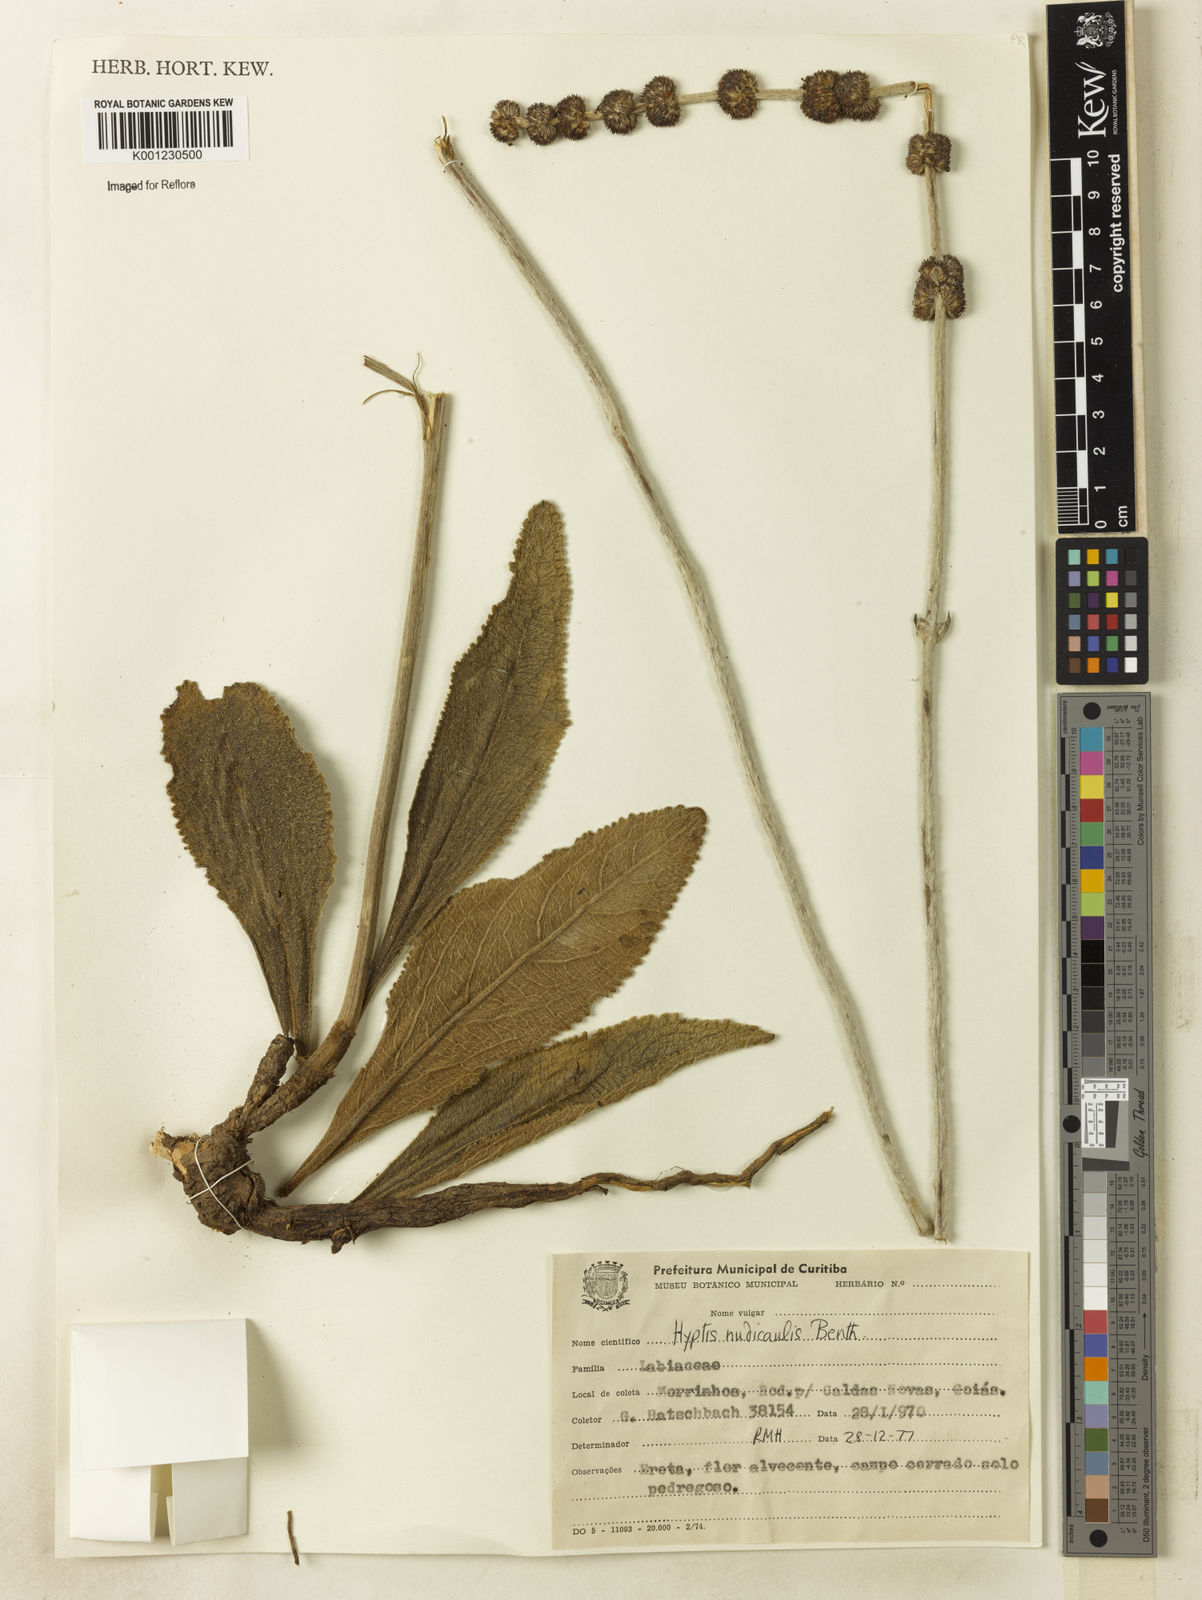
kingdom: Plantae
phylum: Tracheophyta
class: Magnoliopsida
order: Lamiales
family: Lamiaceae
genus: Hyptis
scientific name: Hyptis nudicaulis
